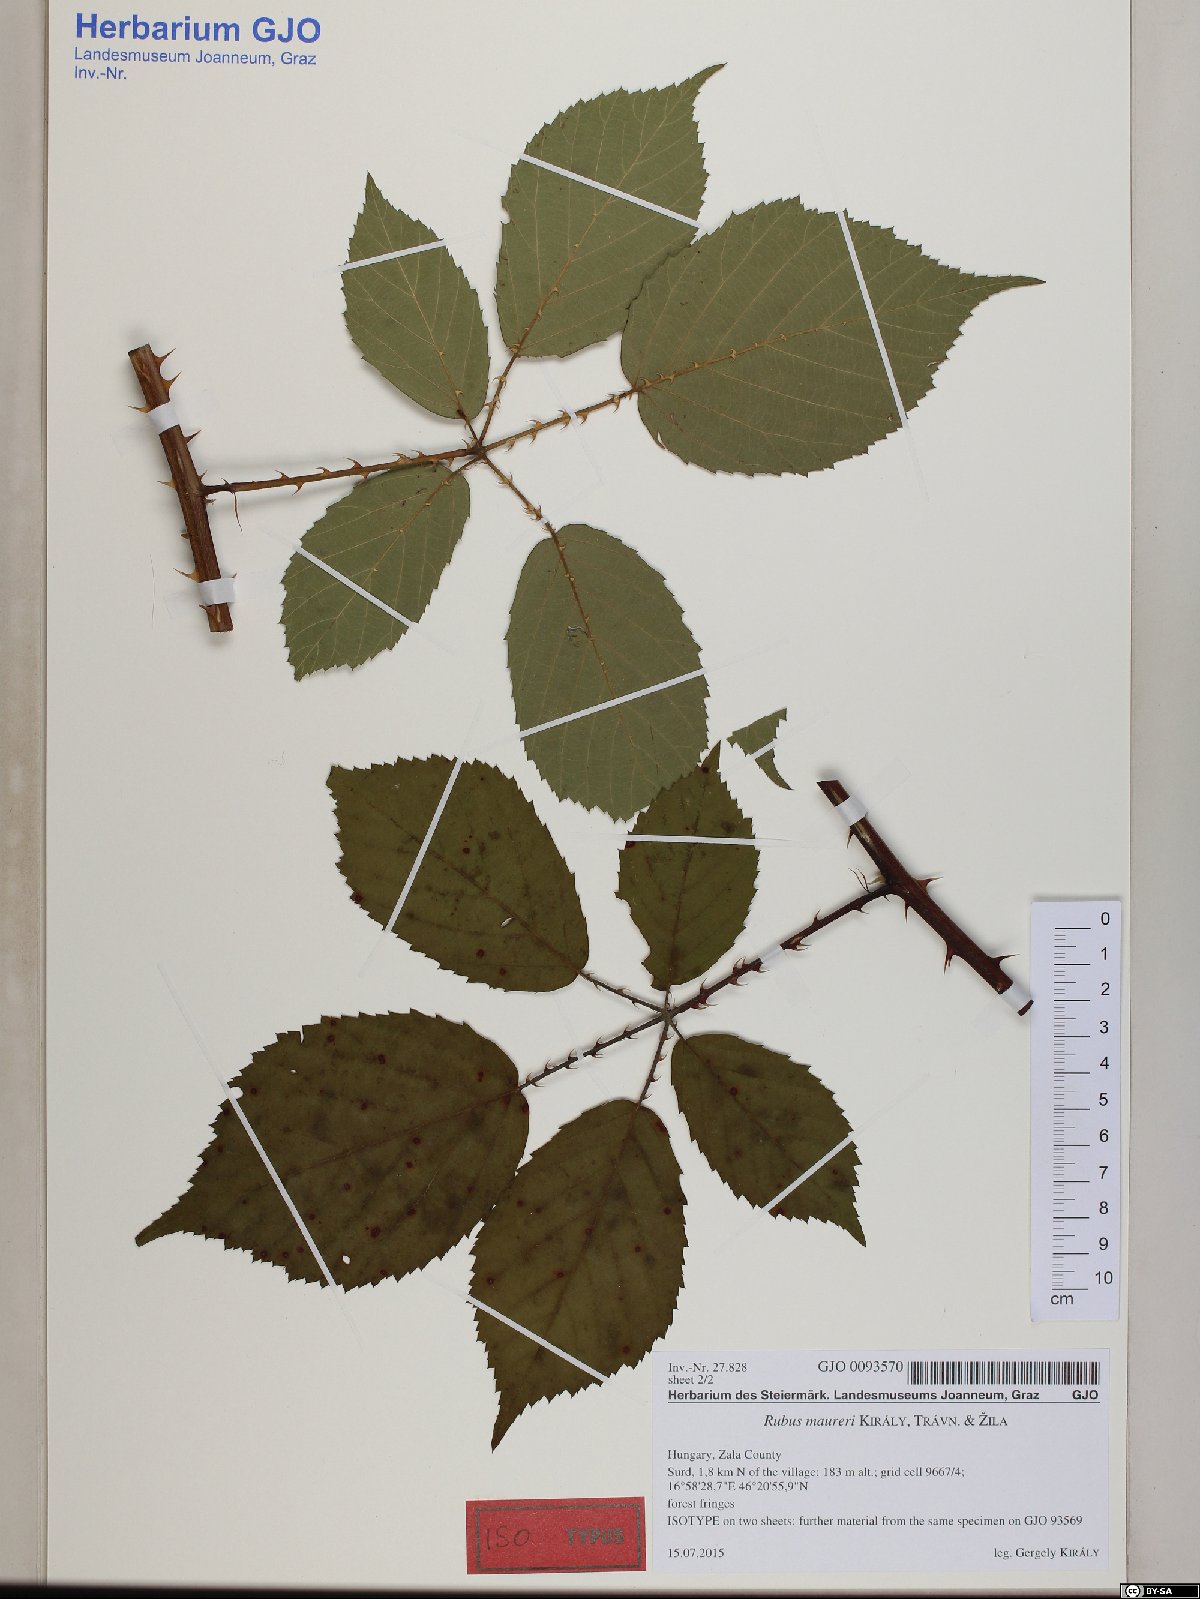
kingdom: Plantae
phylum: Tracheophyta
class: Magnoliopsida
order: Rosales
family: Rosaceae
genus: Rubus
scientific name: Rubus maureri
